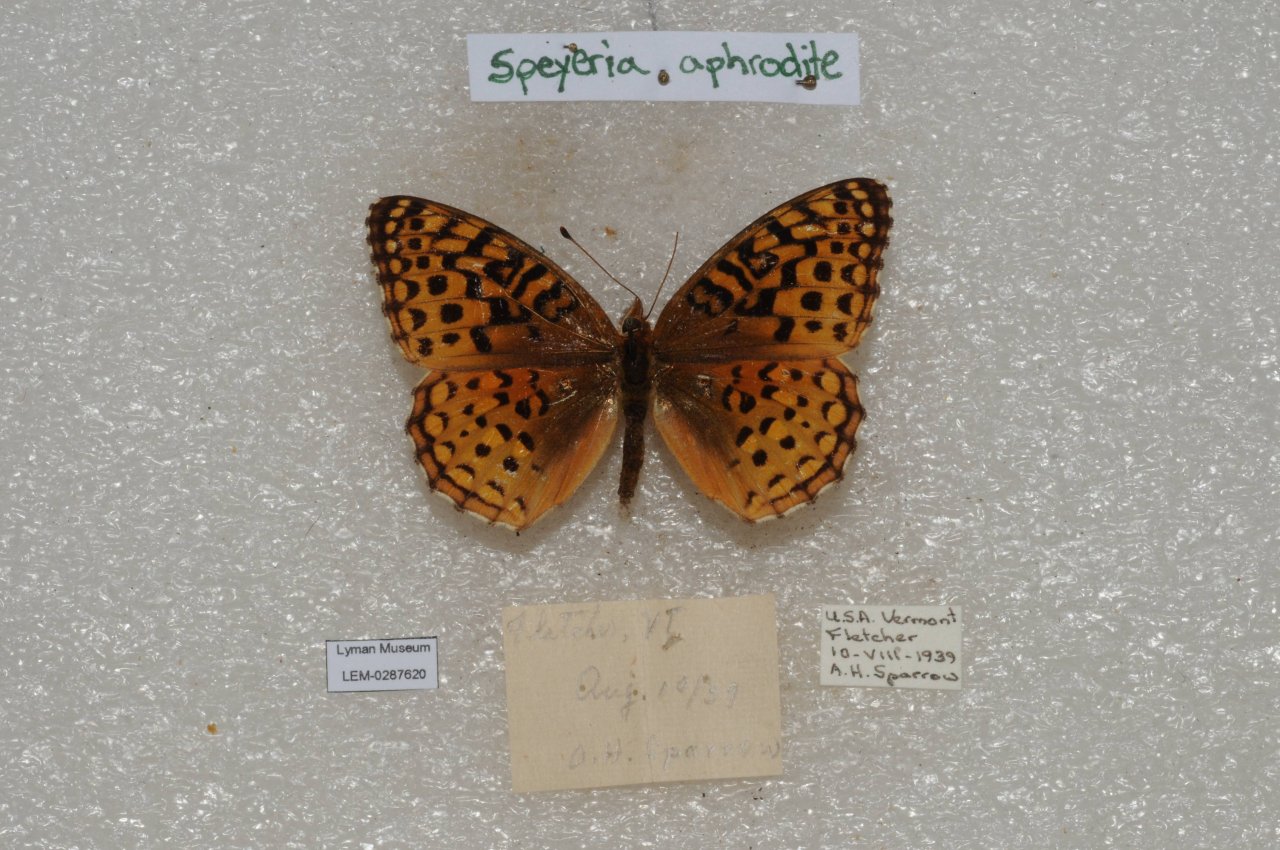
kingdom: Animalia
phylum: Arthropoda
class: Insecta
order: Lepidoptera
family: Nymphalidae
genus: Speyeria
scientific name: Speyeria aphrodite
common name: Aphrodite Fritillary
